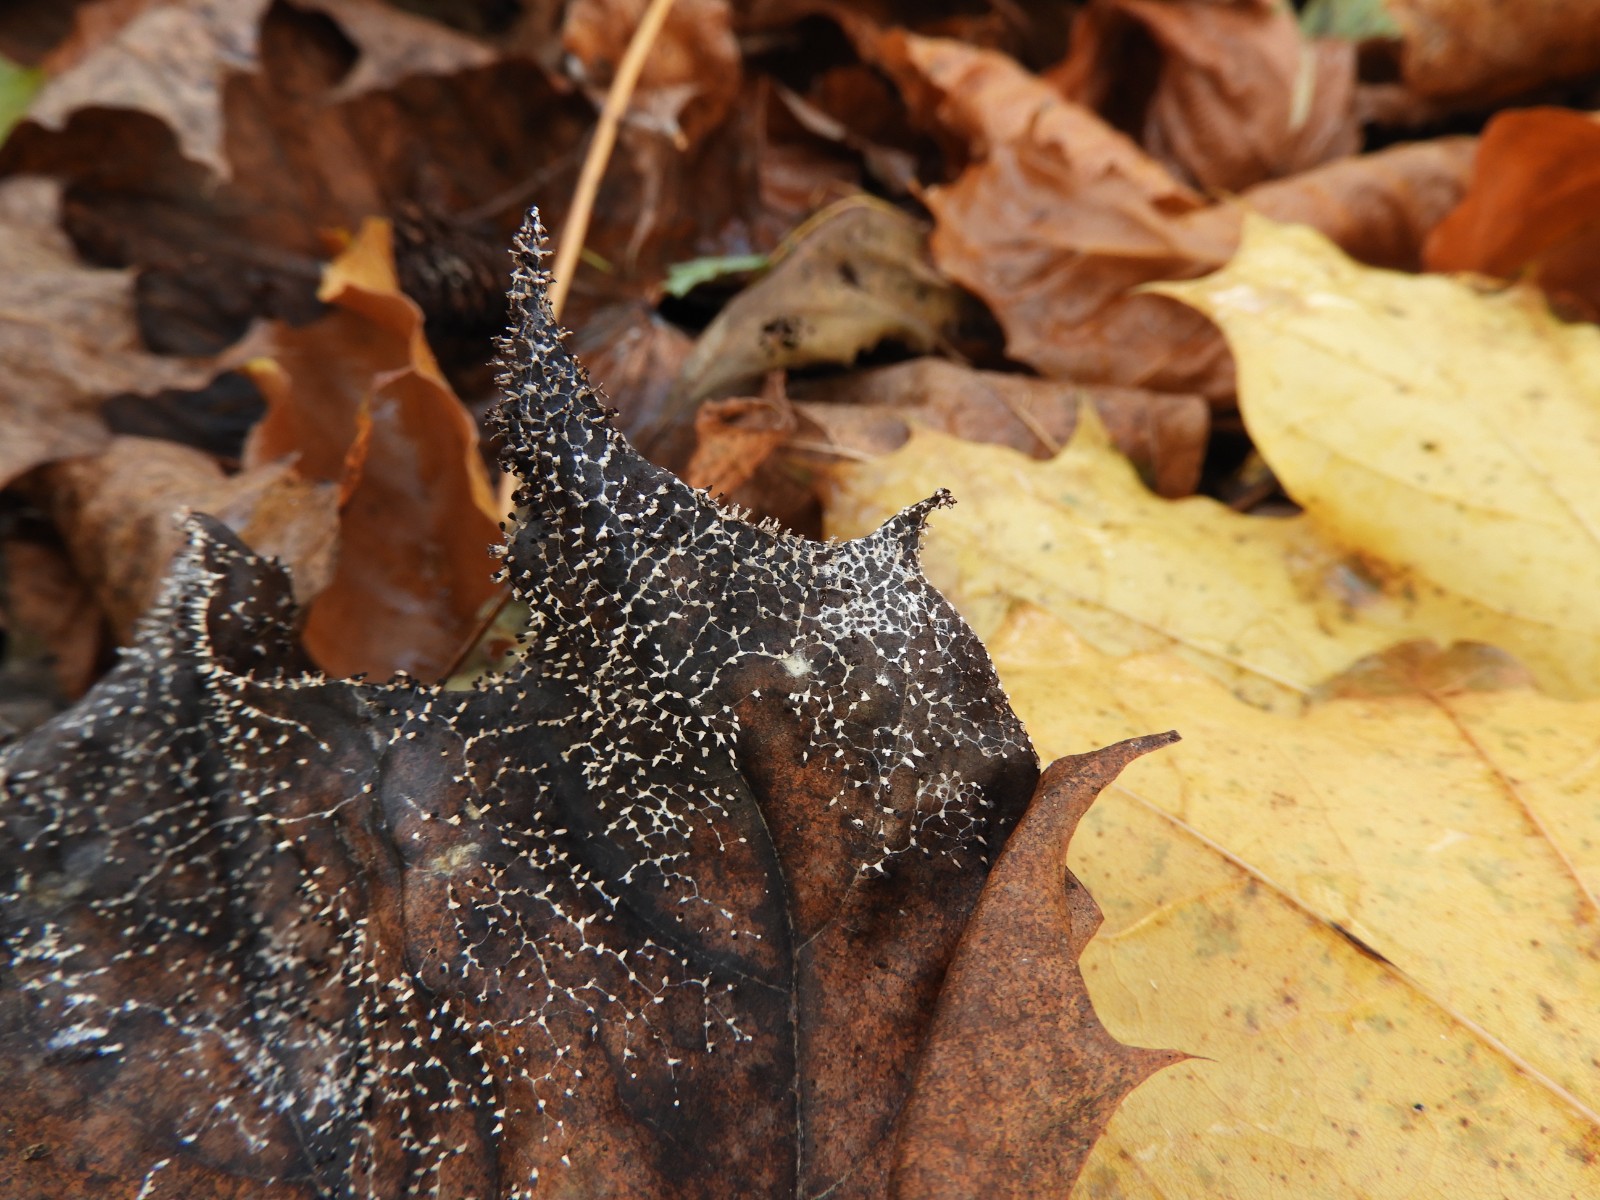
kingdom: Protozoa
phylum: Mycetozoa
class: Myxomycetes
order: Physarales
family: Didymiaceae
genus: Diachea
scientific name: Diachea leucopodia
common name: hvidstokket metalknop
